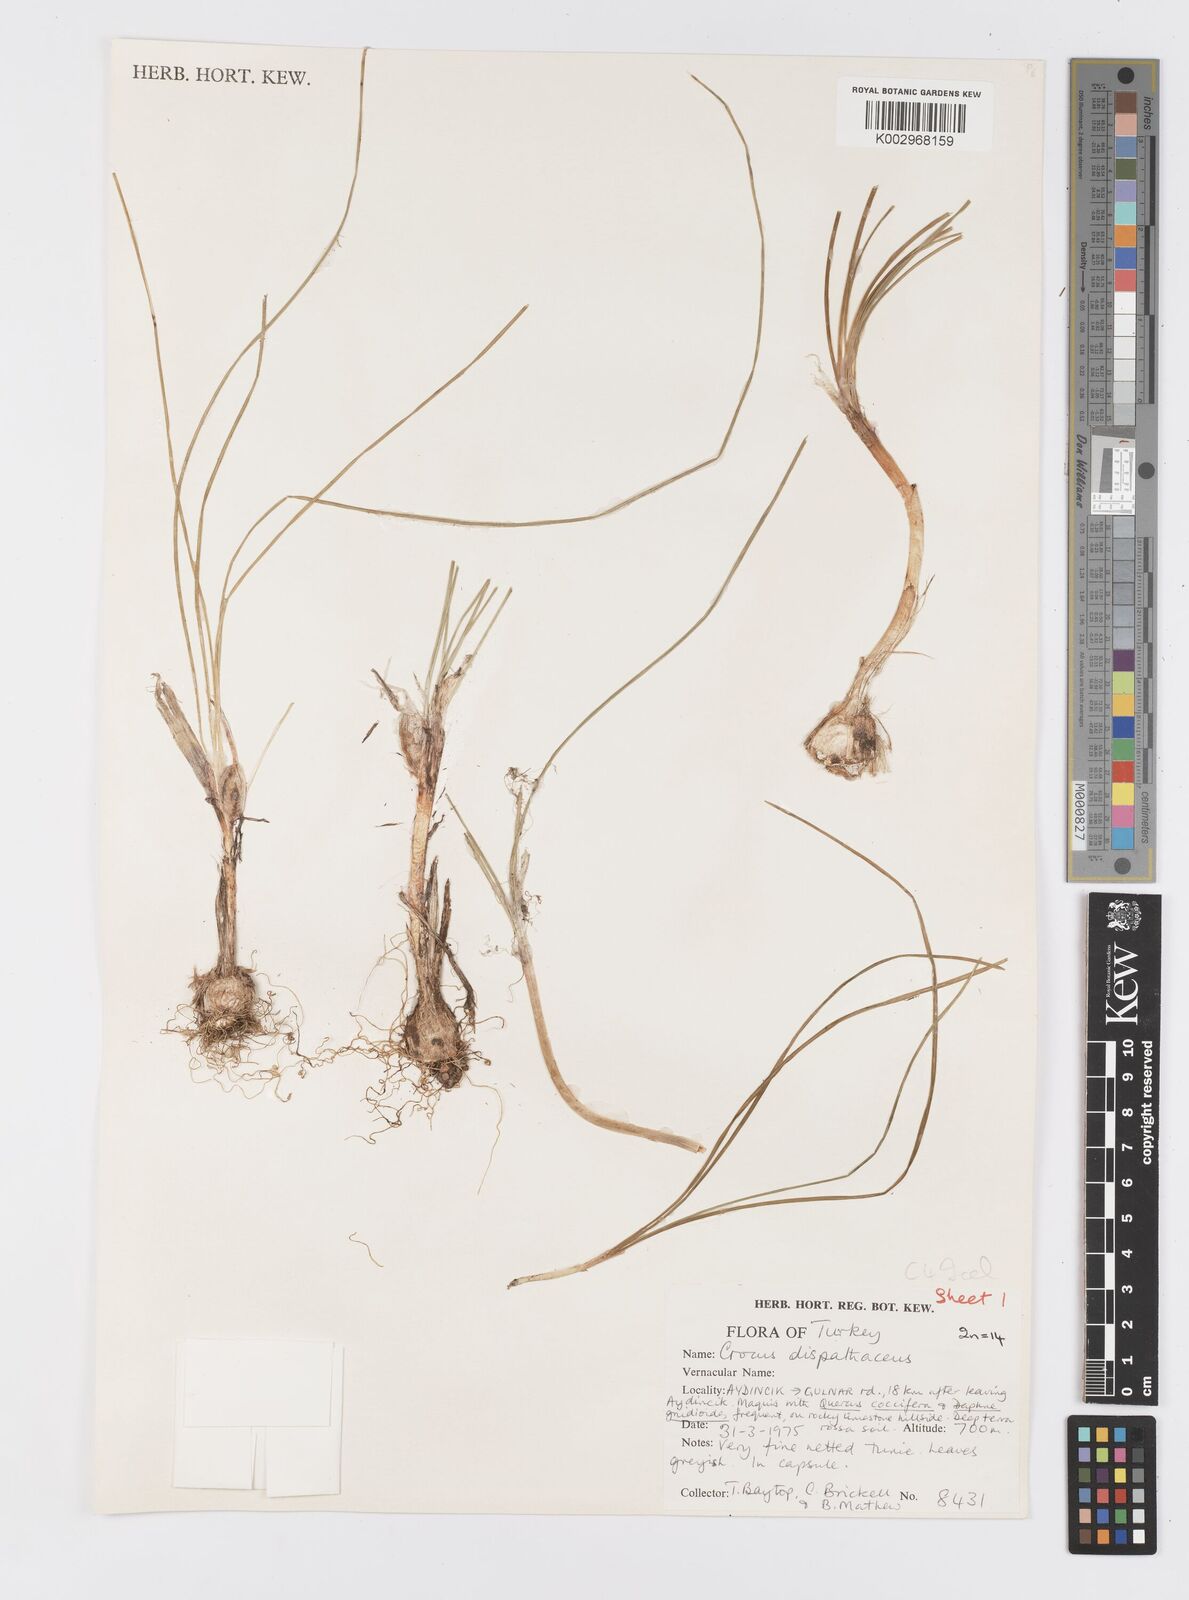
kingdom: Plantae
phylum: Tracheophyta
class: Liliopsida
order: Asparagales
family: Iridaceae
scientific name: Iridaceae
